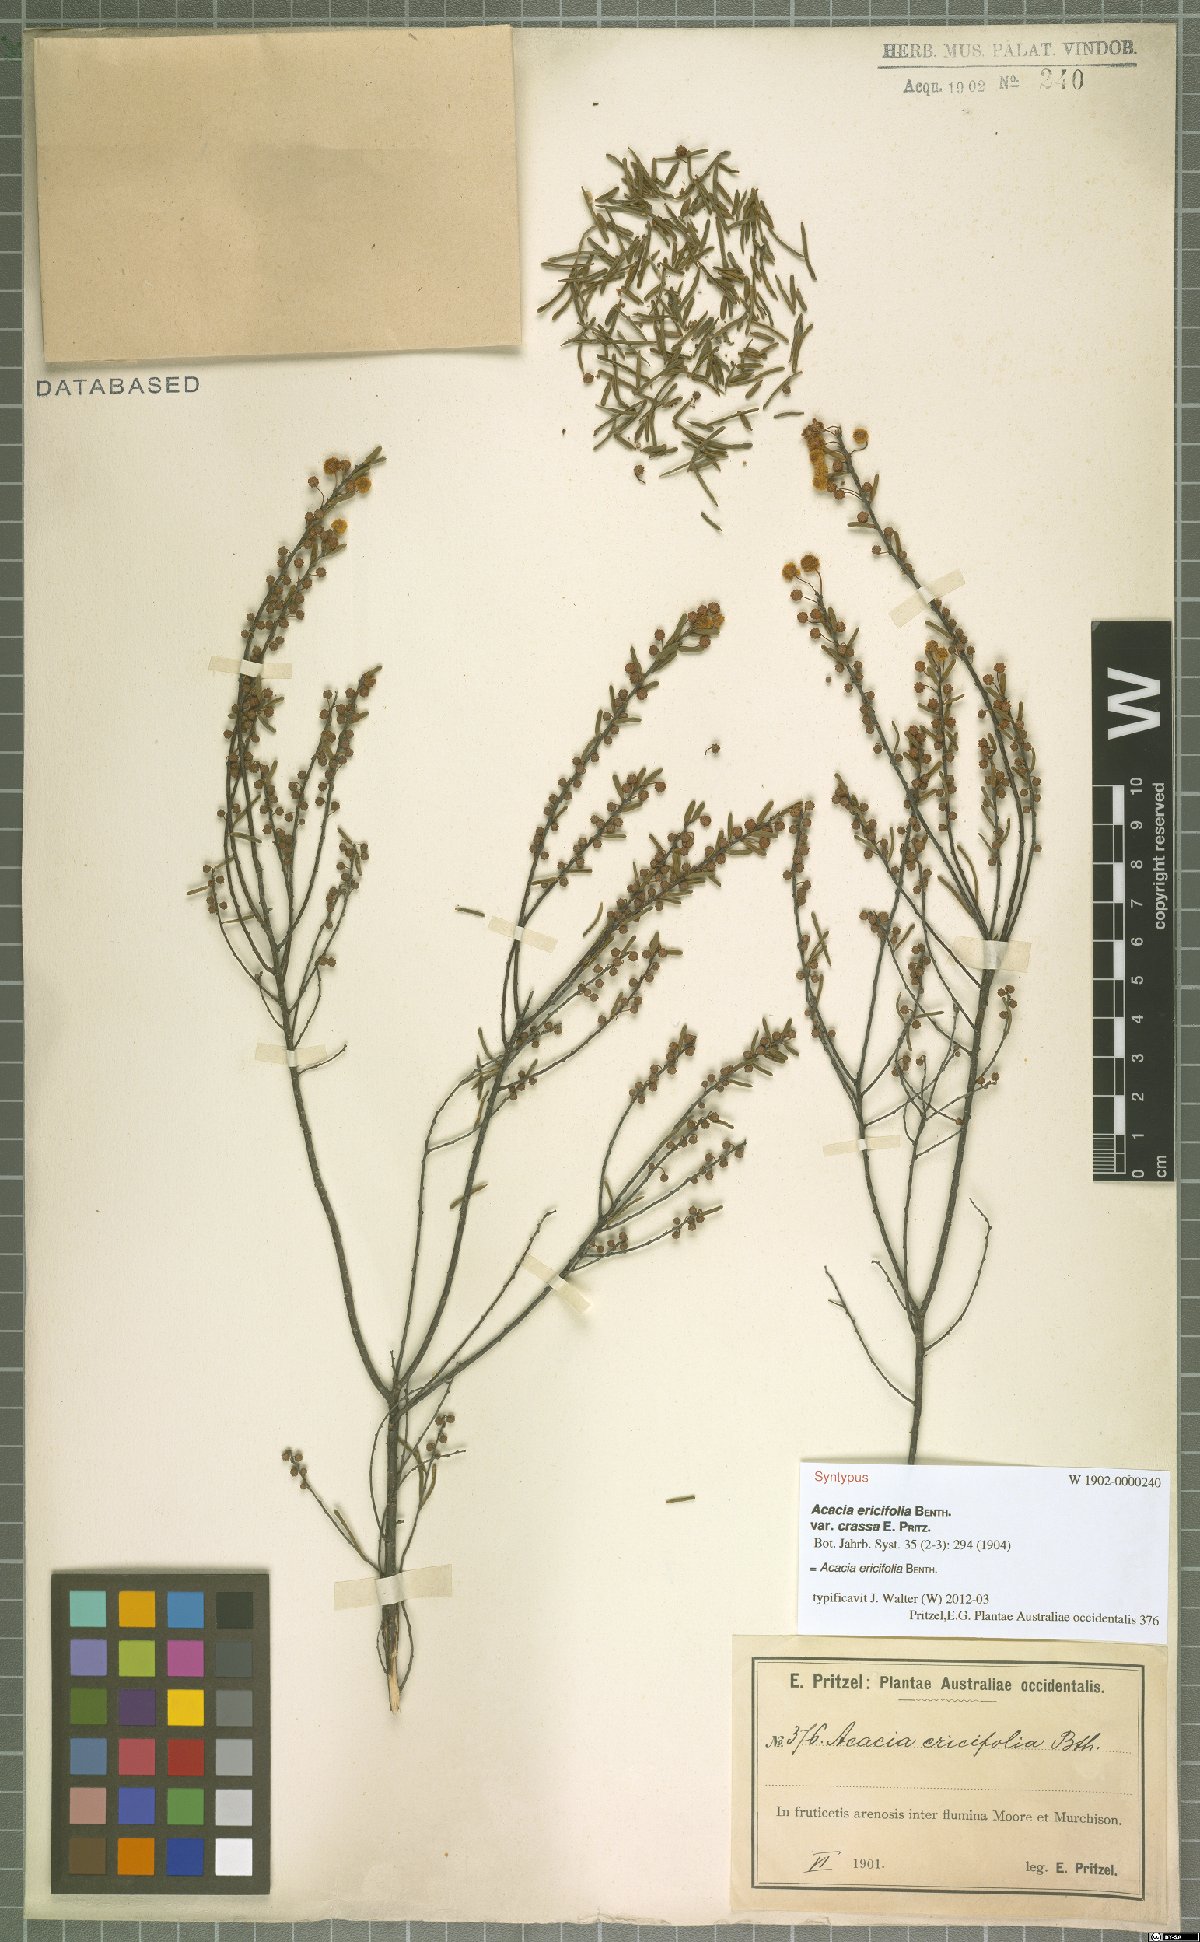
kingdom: Plantae
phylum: Tracheophyta
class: Magnoliopsida
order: Fabales
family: Fabaceae
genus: Acacia
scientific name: Acacia ericifolia
